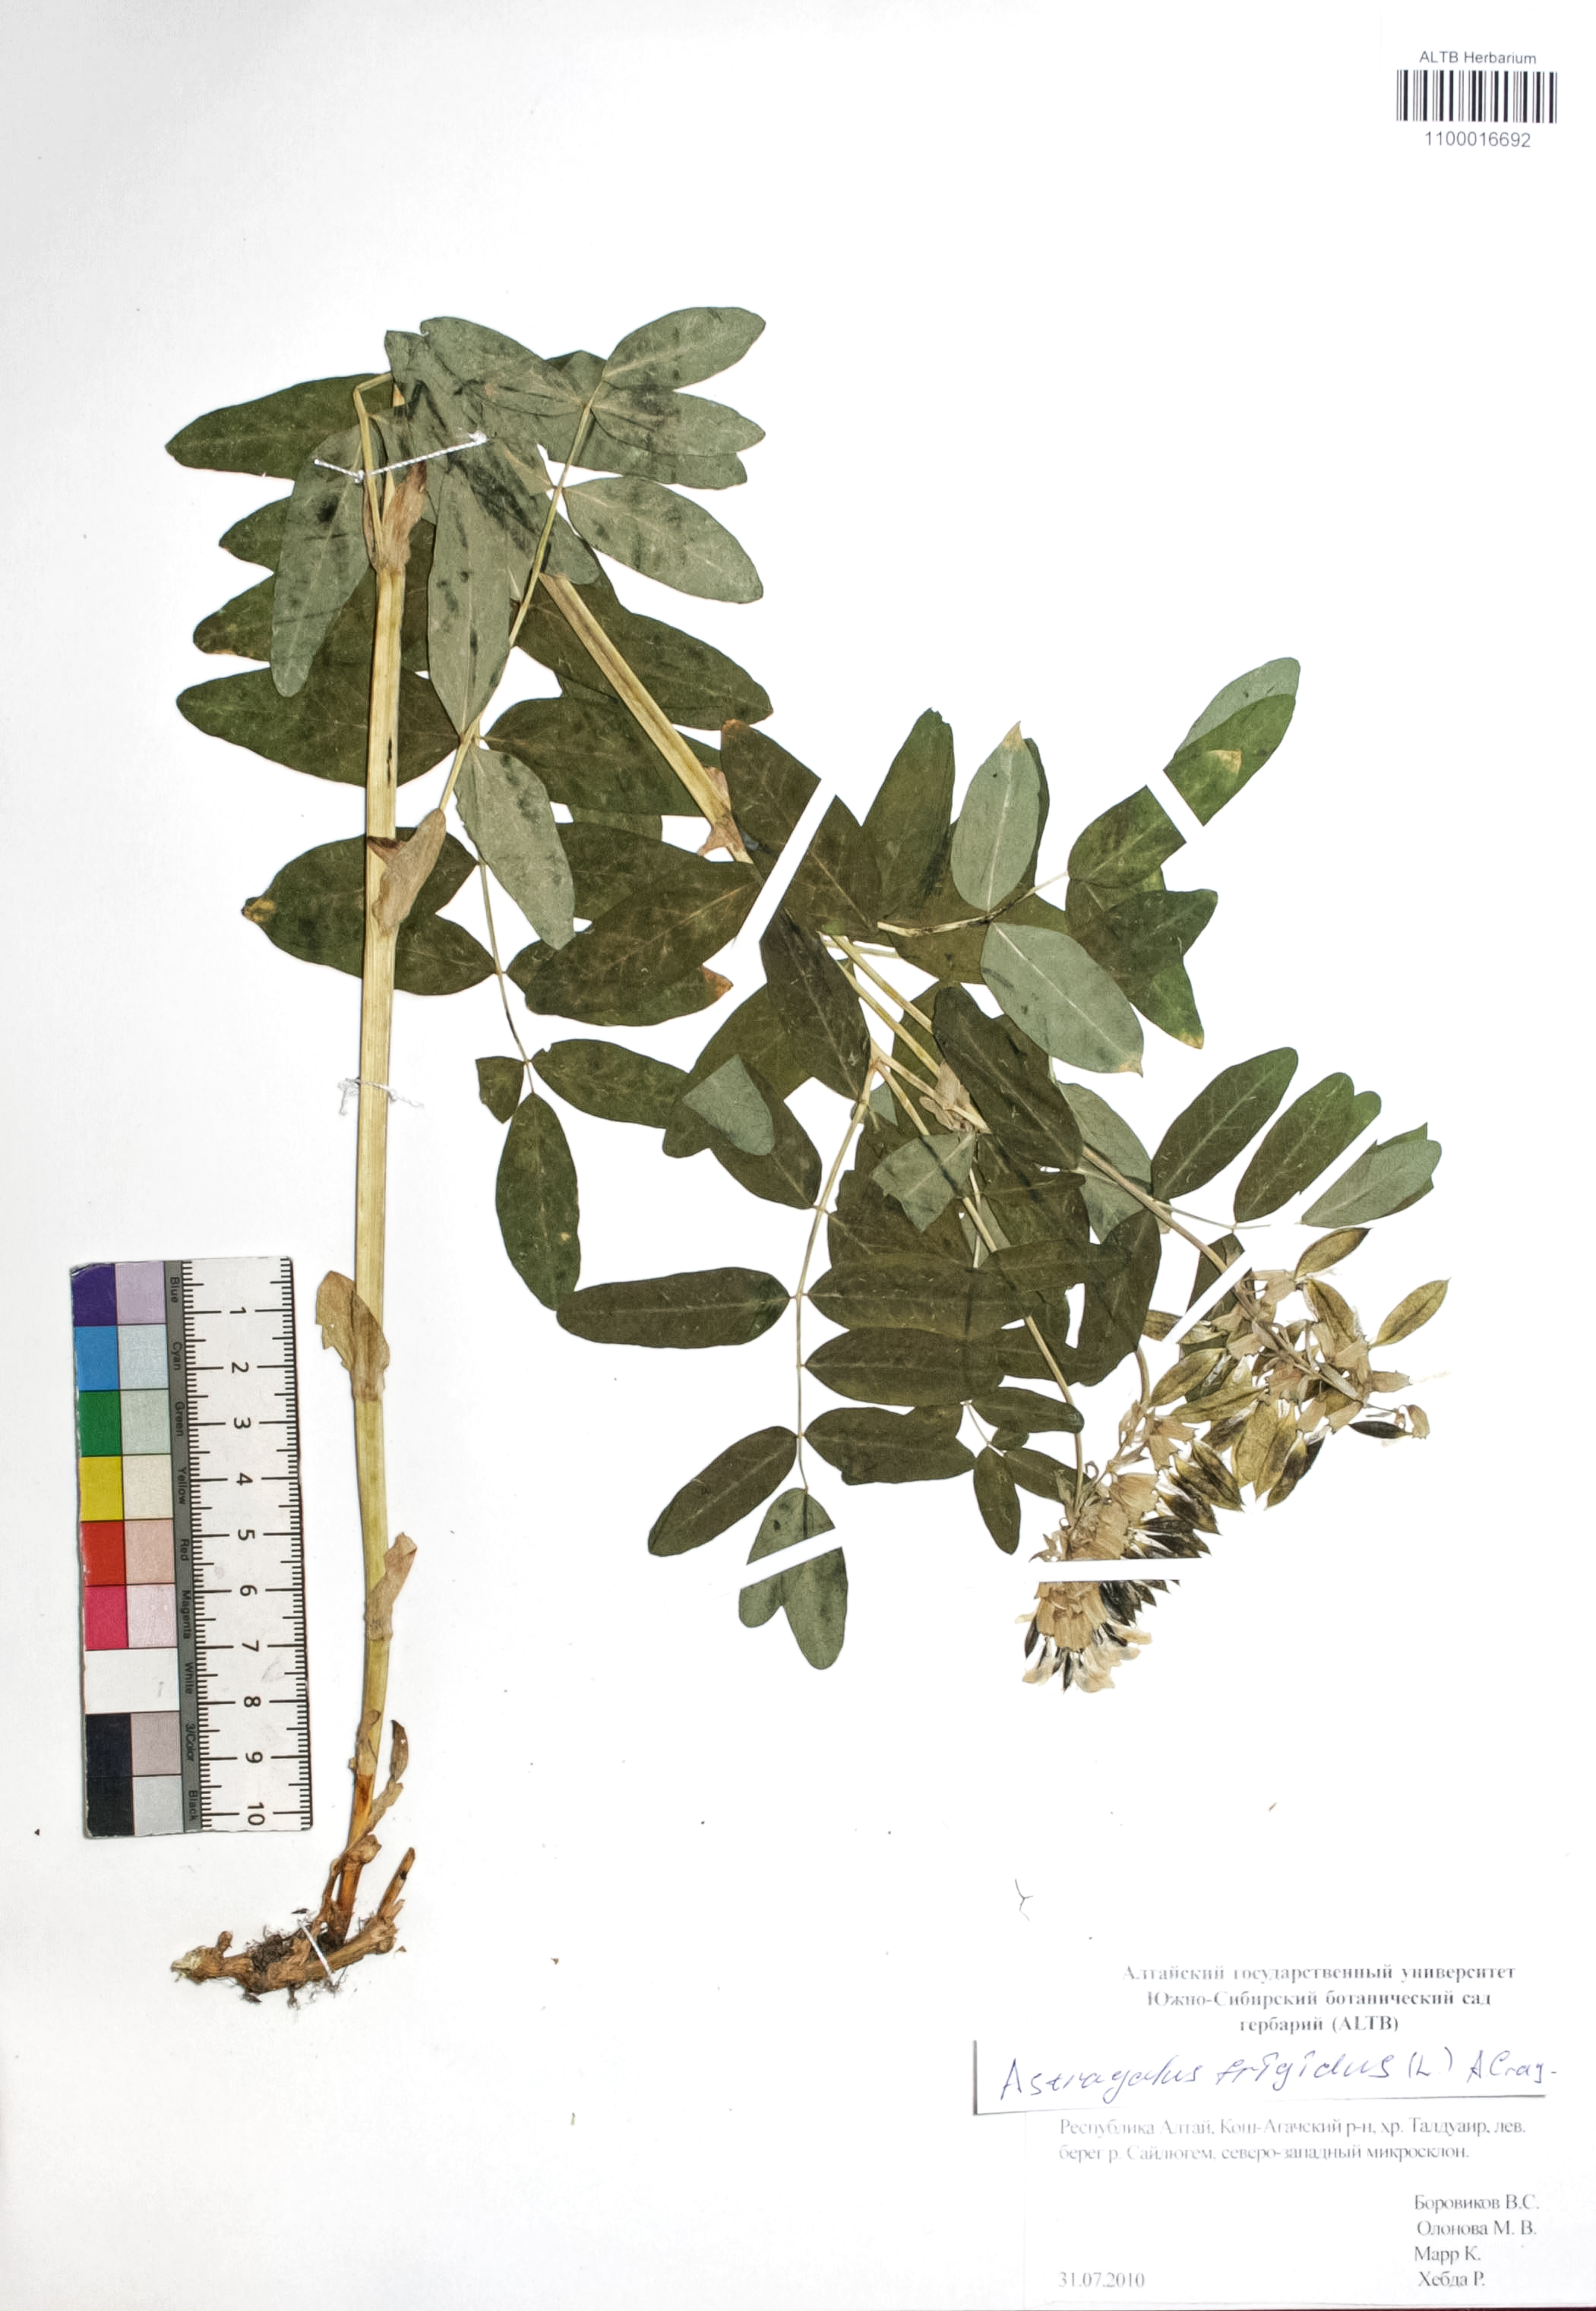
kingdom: Plantae
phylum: Tracheophyta
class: Magnoliopsida
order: Fabales
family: Fabaceae
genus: Astragalus
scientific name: Astragalus frigidus
